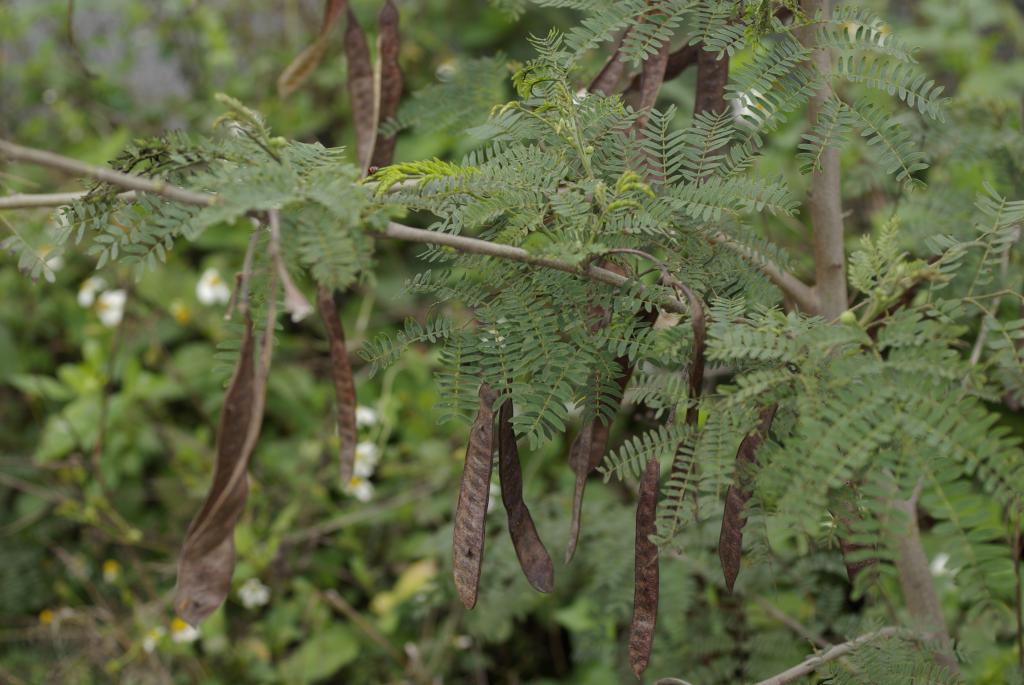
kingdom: Plantae
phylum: Tracheophyta
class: Magnoliopsida
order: Fabales
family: Fabaceae
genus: Leucaena
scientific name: Leucaena leucocephala
